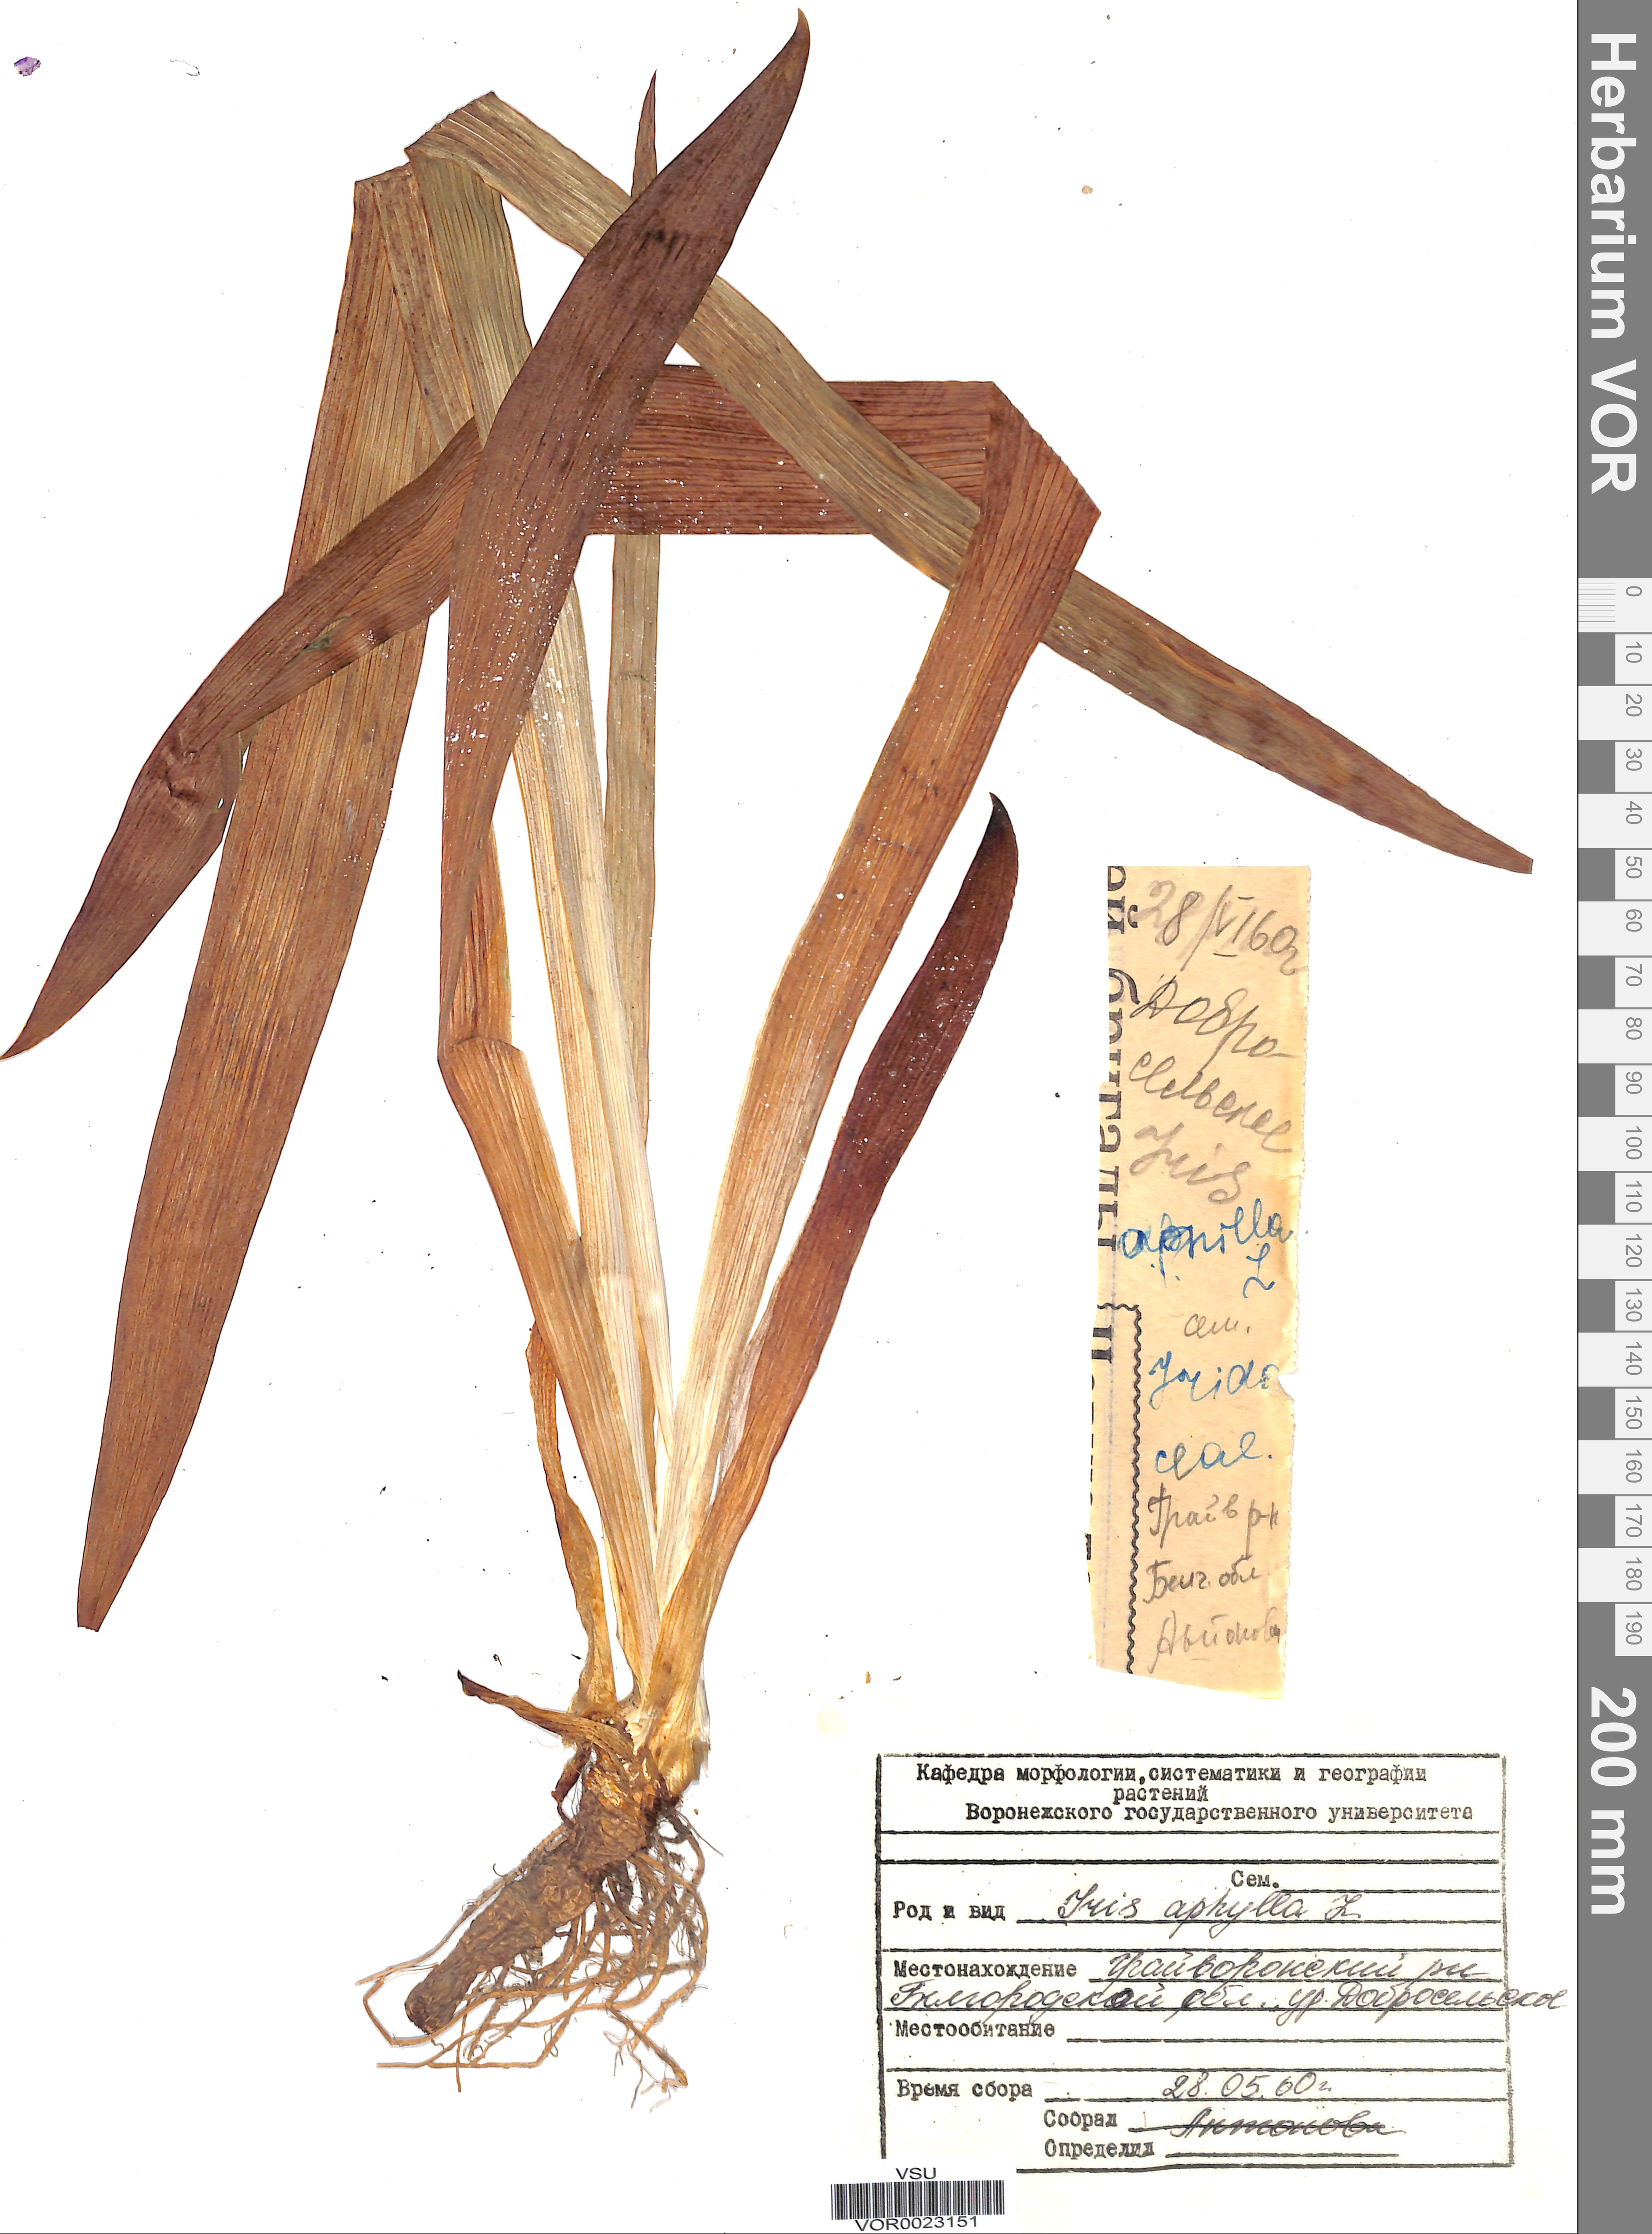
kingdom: Plantae
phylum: Tracheophyta
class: Liliopsida
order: Asparagales
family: Iridaceae
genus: Iris
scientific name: Iris aphylla
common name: Stool iris
